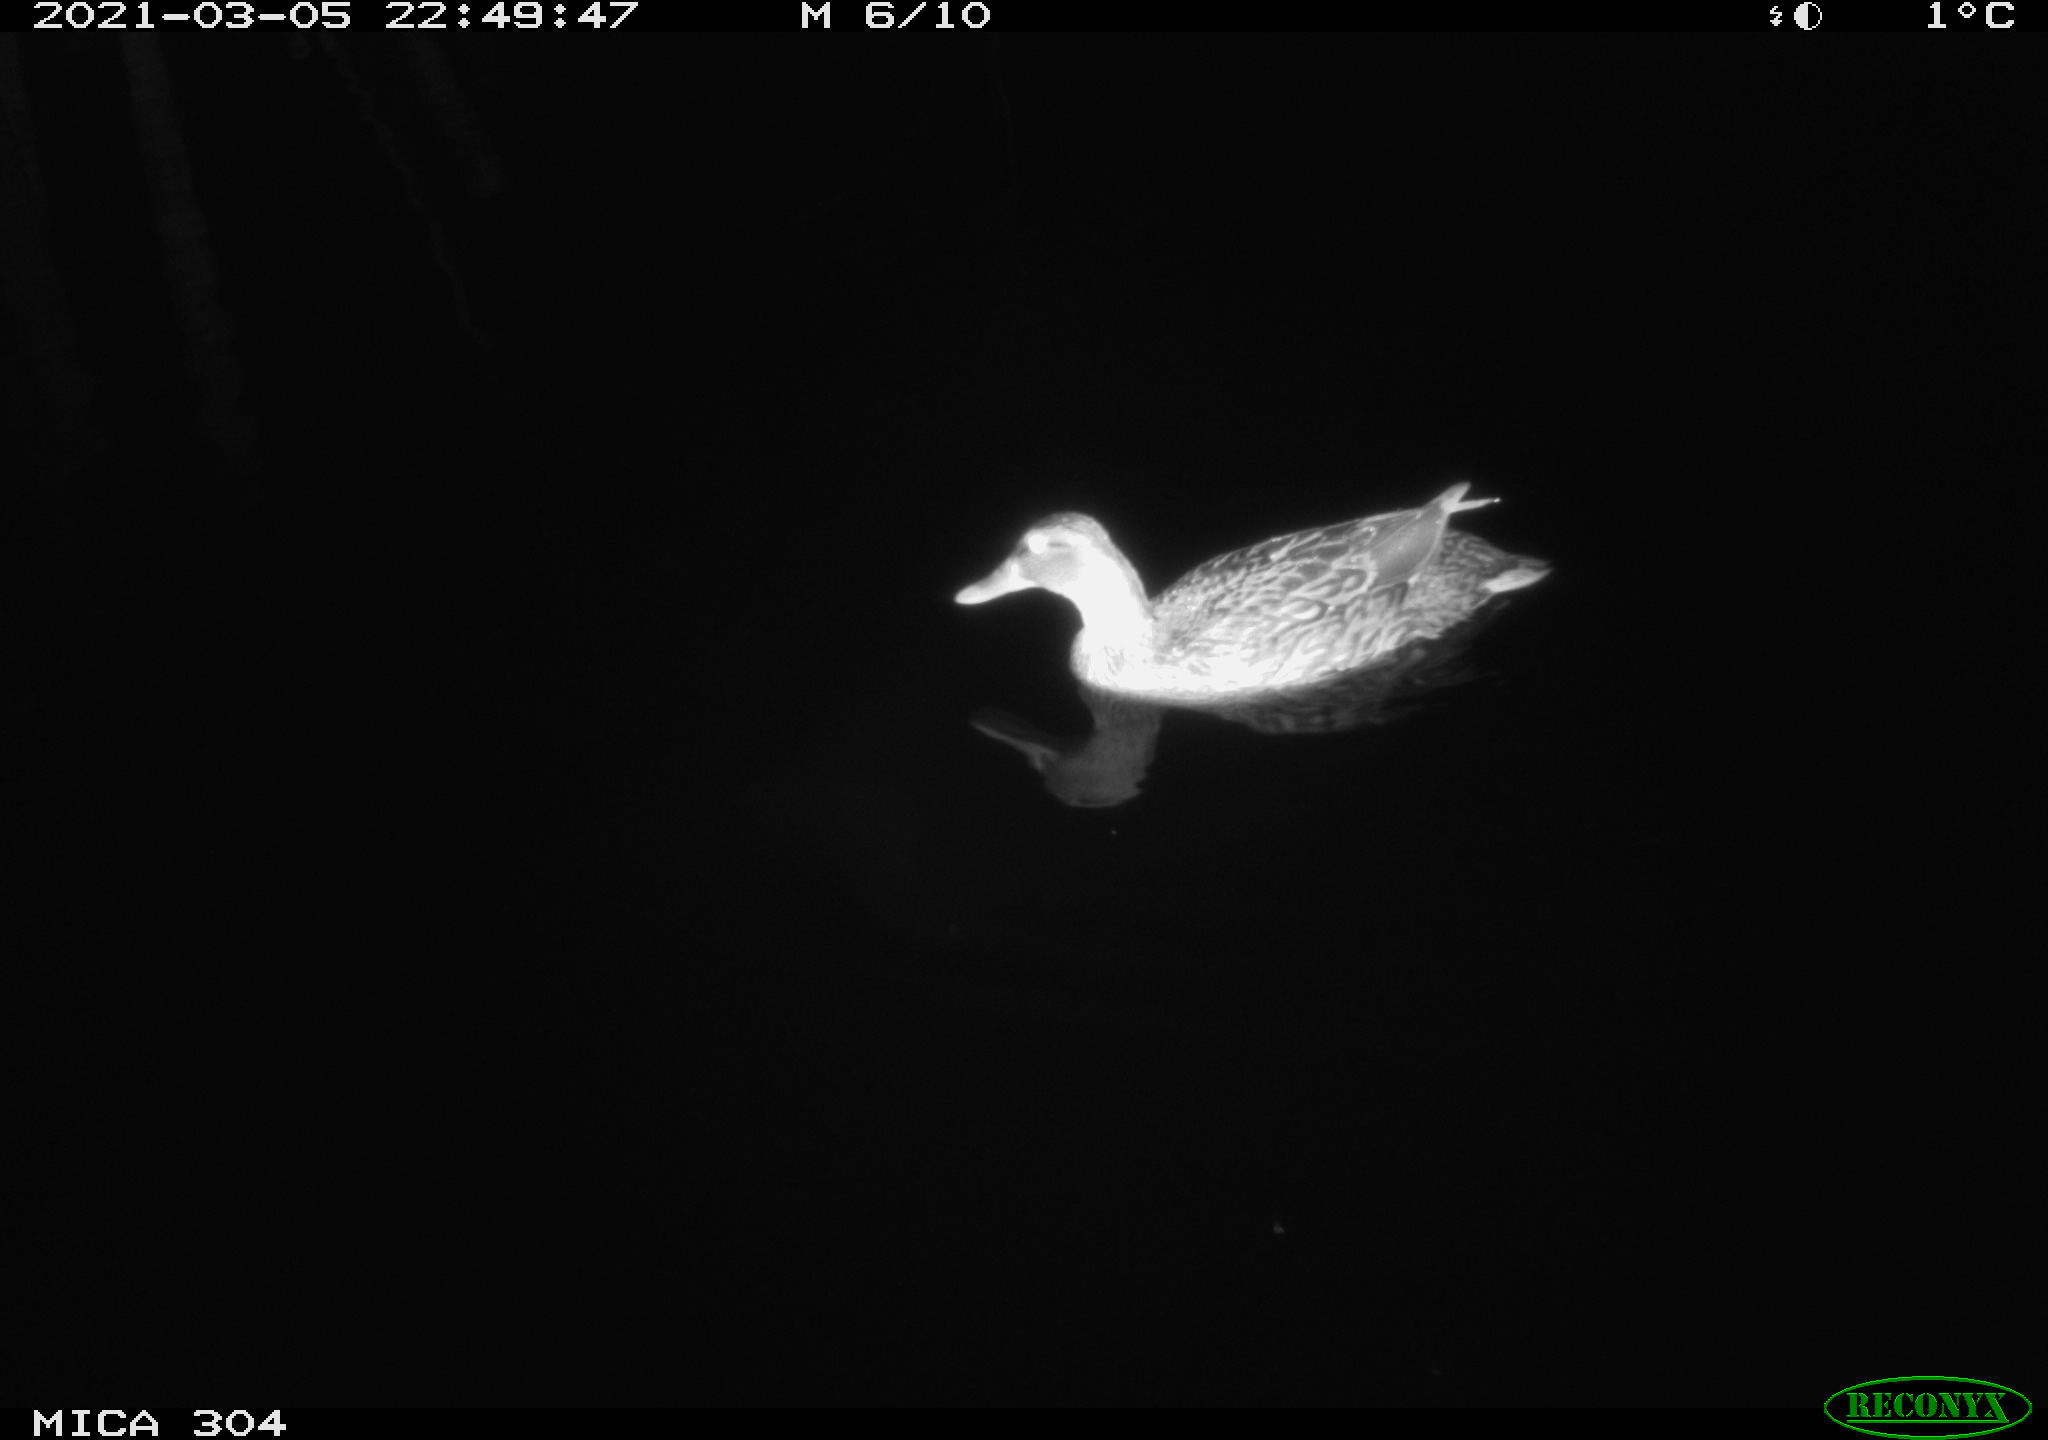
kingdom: Animalia
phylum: Chordata
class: Aves
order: Anseriformes
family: Anatidae
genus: Anas
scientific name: Anas platyrhynchos
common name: Mallard
